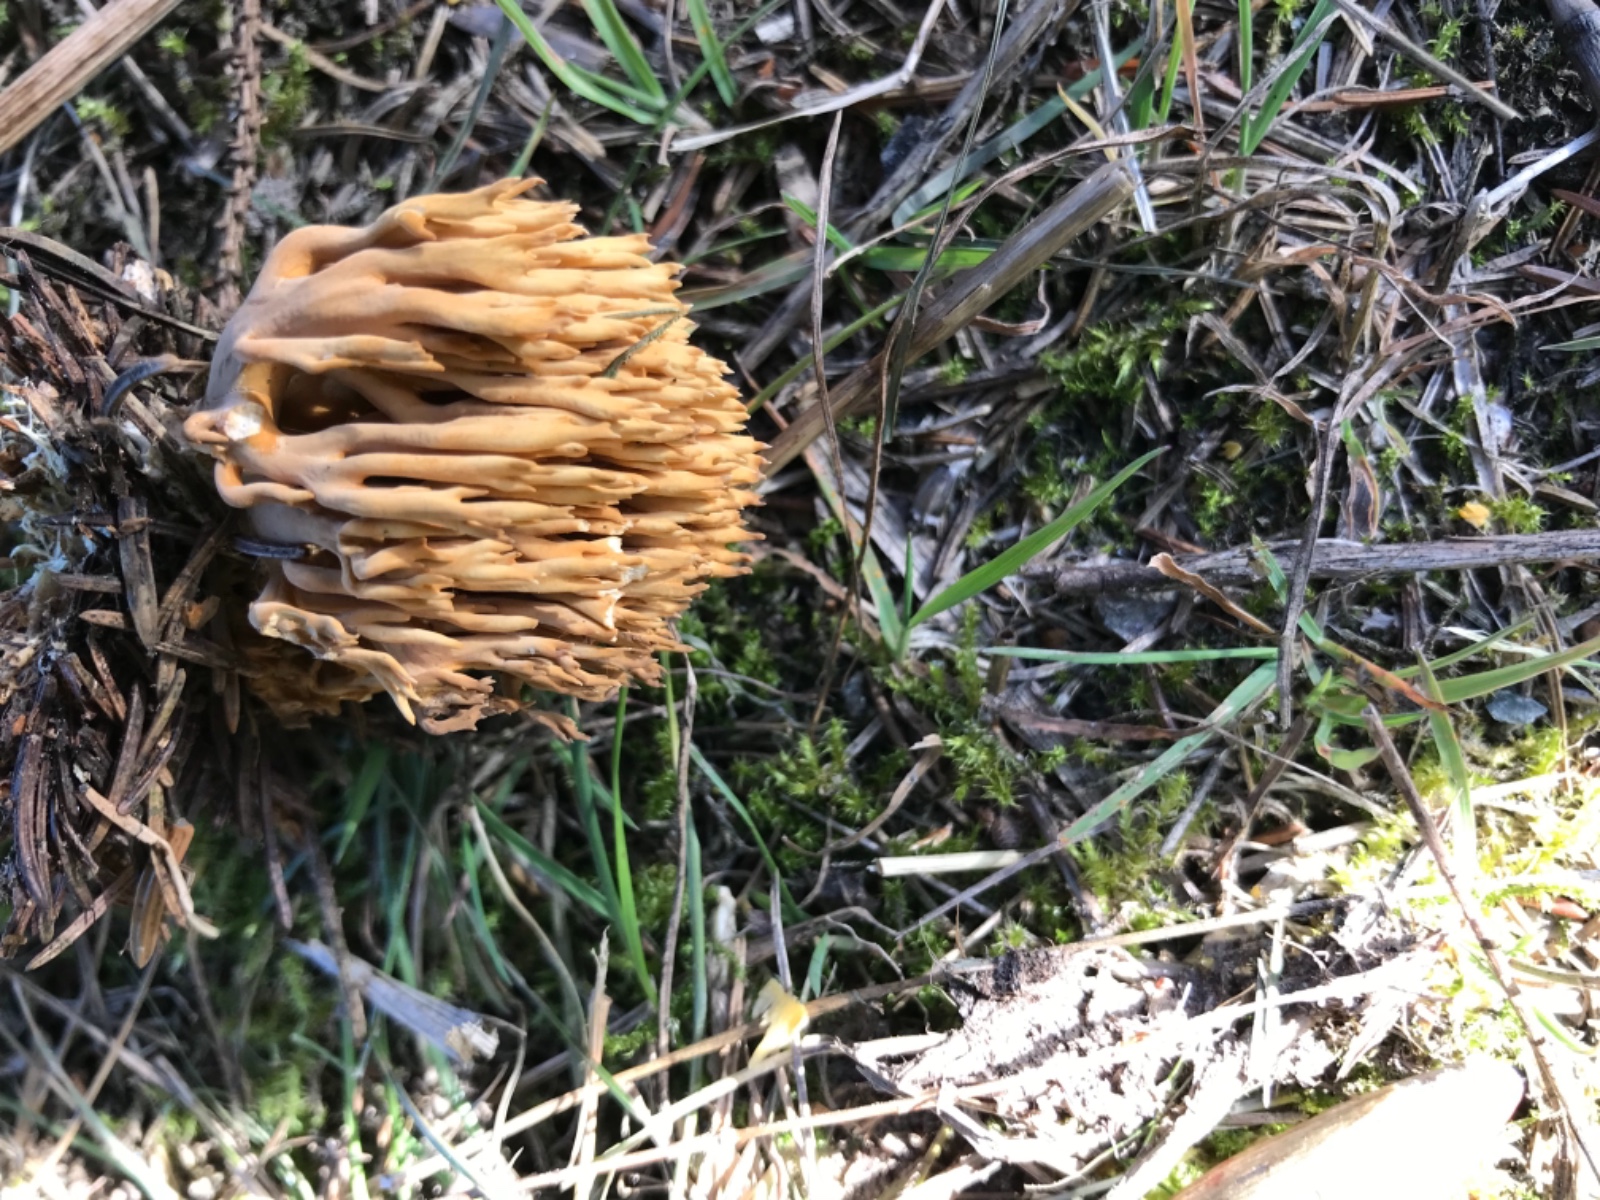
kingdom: Fungi
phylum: Basidiomycota
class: Agaricomycetes
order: Gomphales
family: Gomphaceae
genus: Phaeoclavulina
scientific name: Phaeoclavulina eumorpha
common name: gran-koralsvamp
